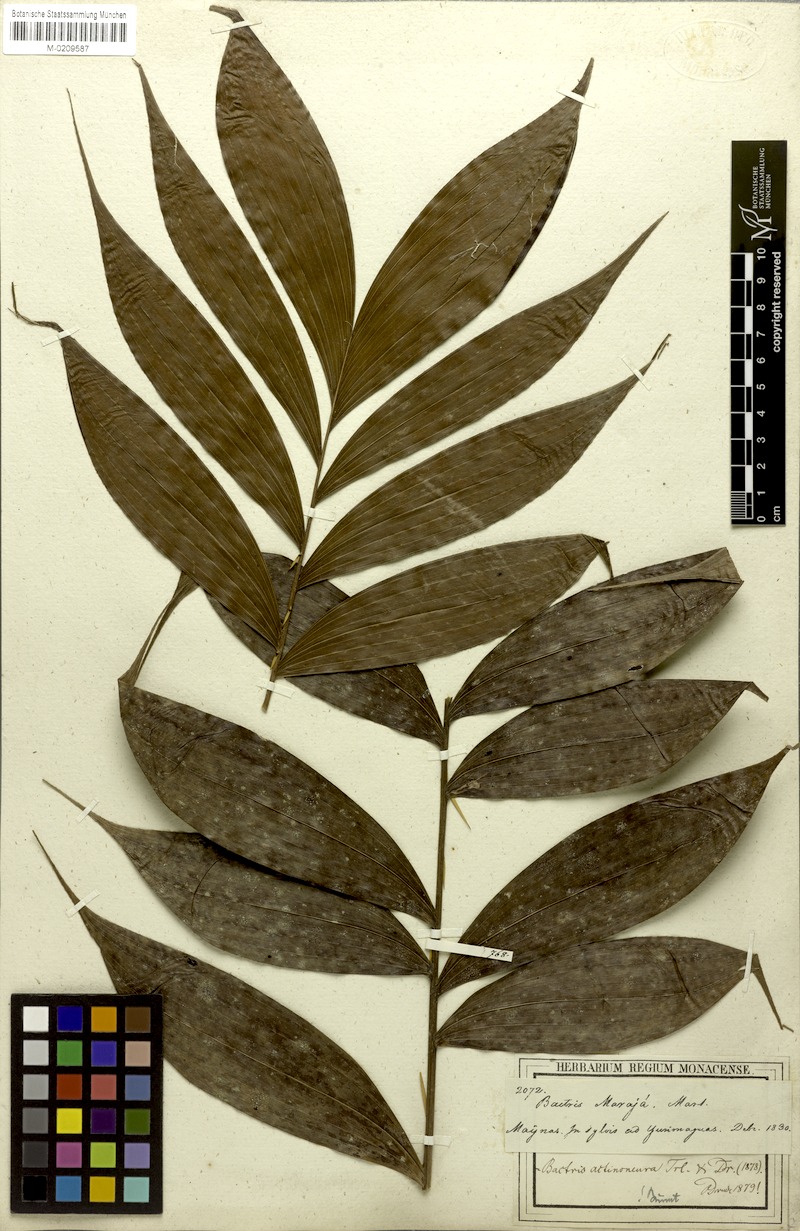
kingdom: Plantae
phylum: Tracheophyta
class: Liliopsida
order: Arecales
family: Arecaceae
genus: Bactris
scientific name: Bactris maraja
